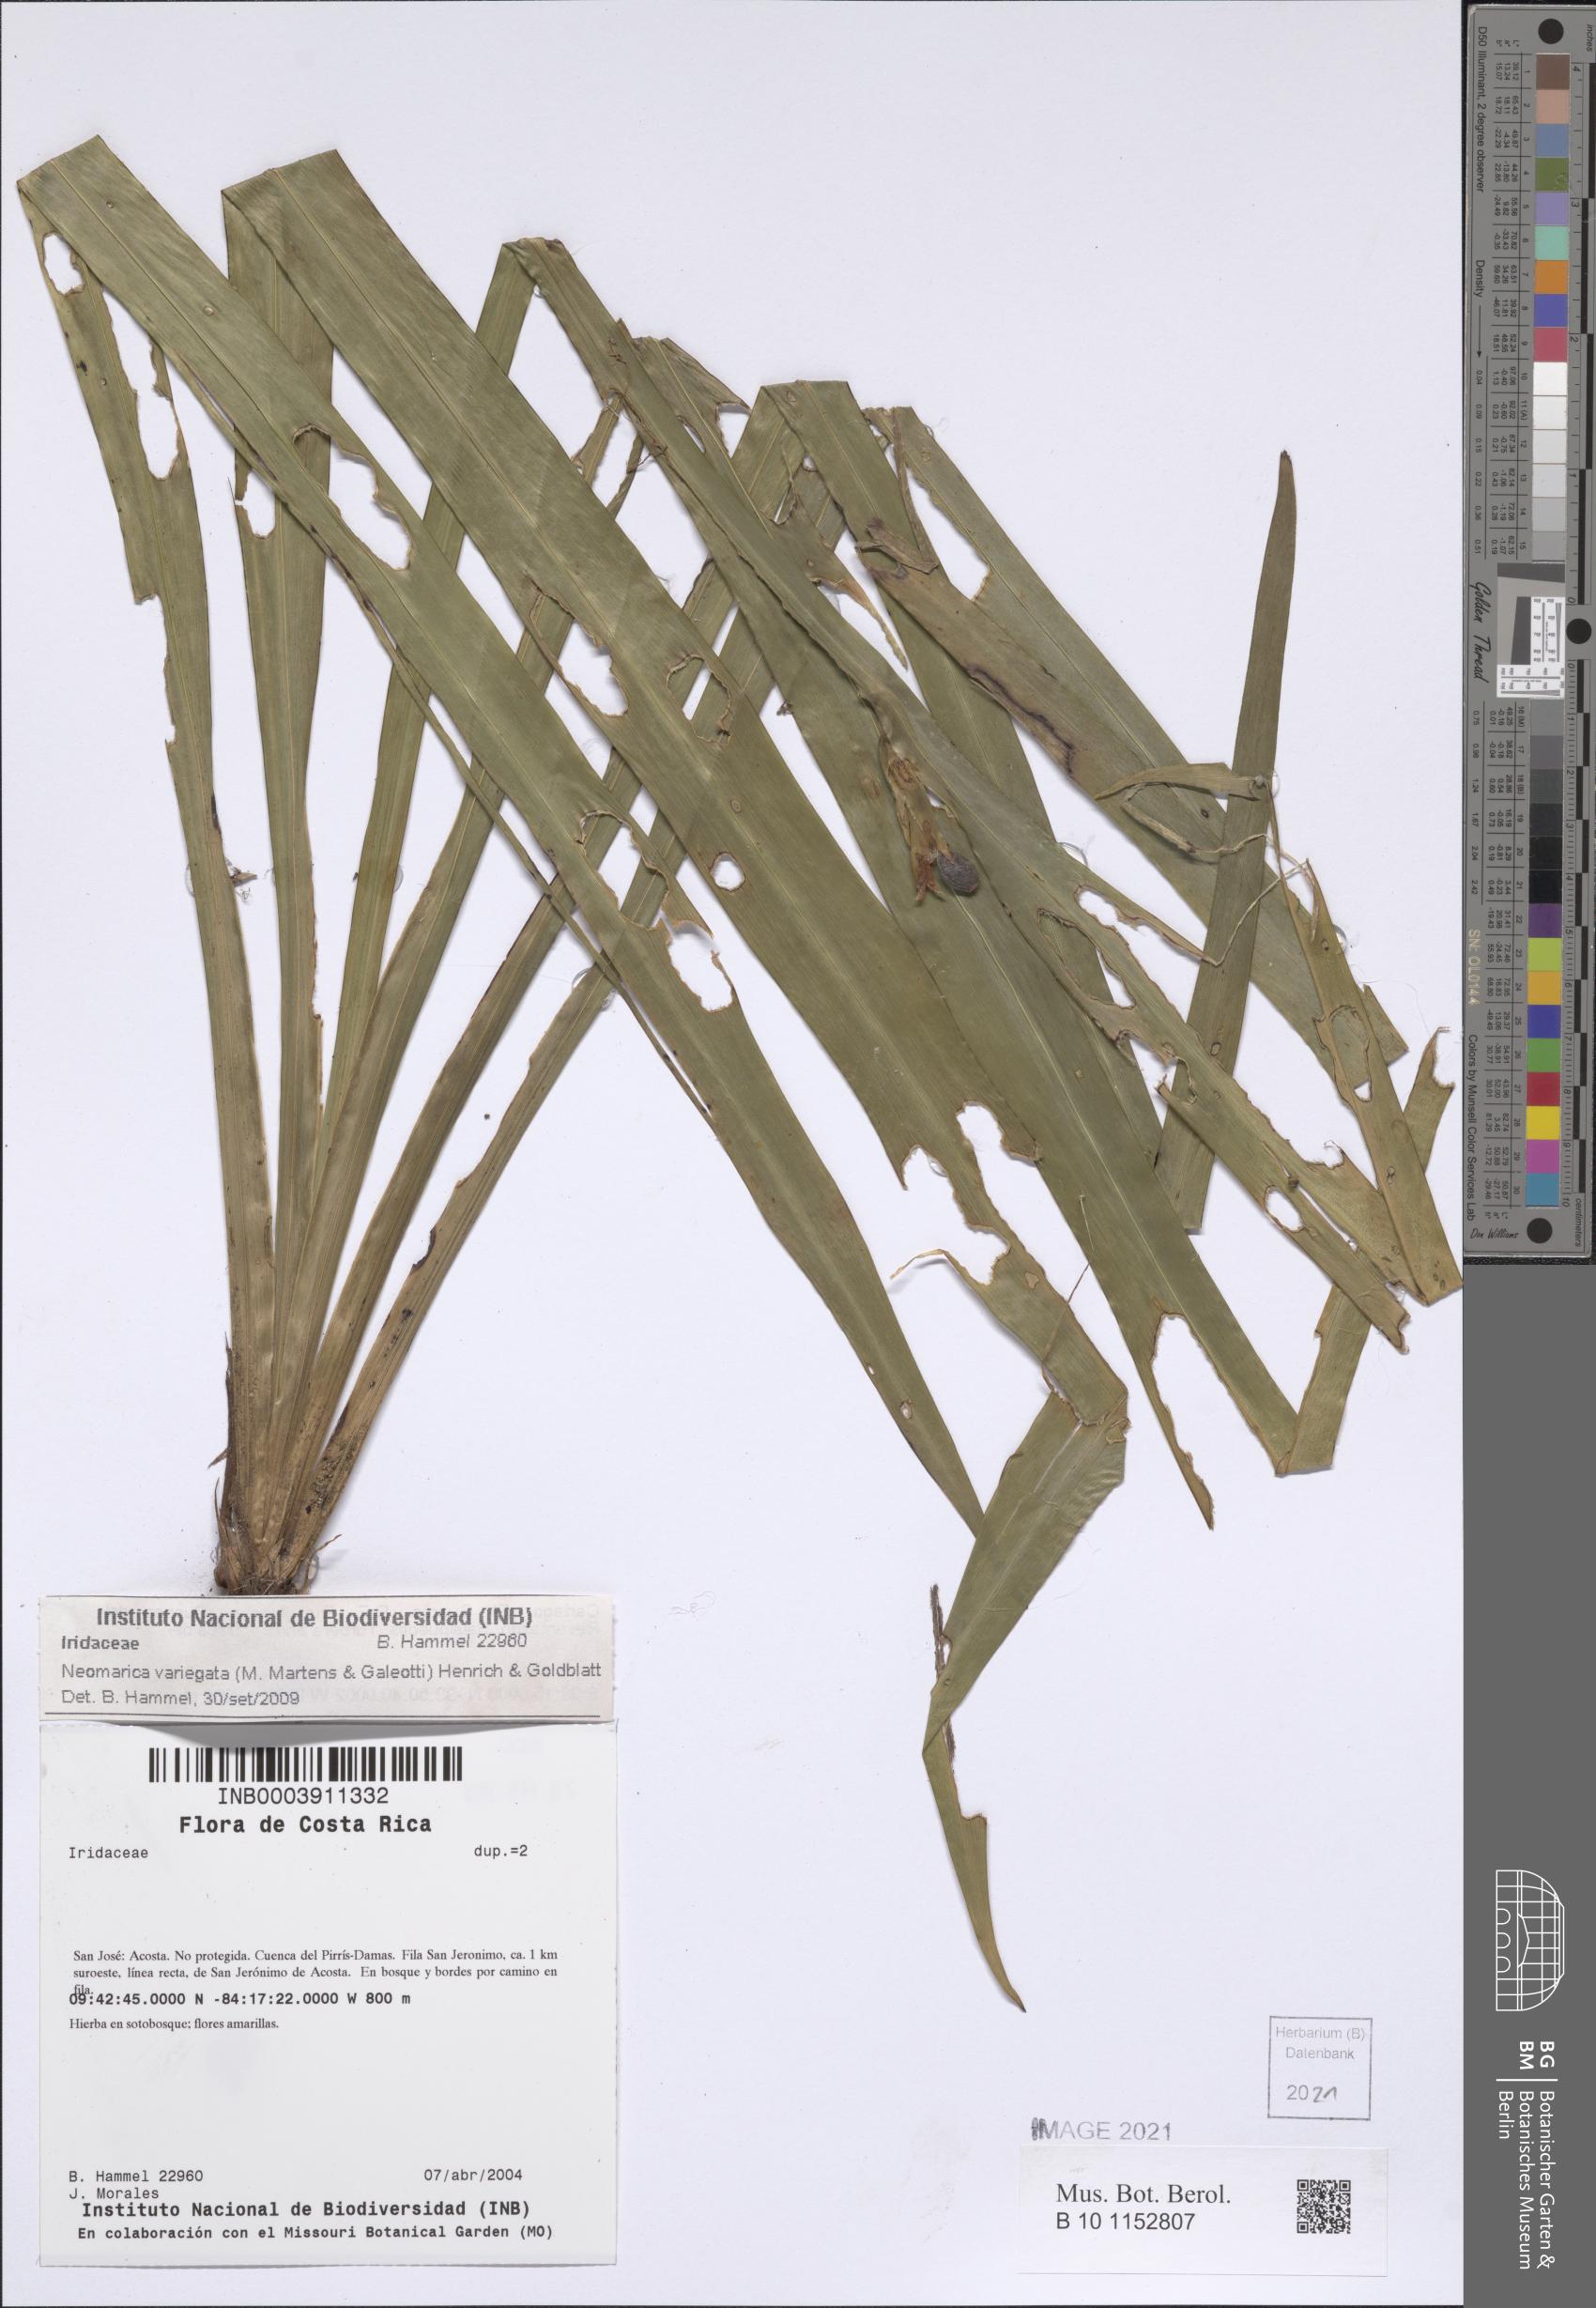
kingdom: Plantae
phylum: Tracheophyta
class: Liliopsida
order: Asparagales
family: Iridaceae
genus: Trimezia
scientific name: Trimezia variegata
